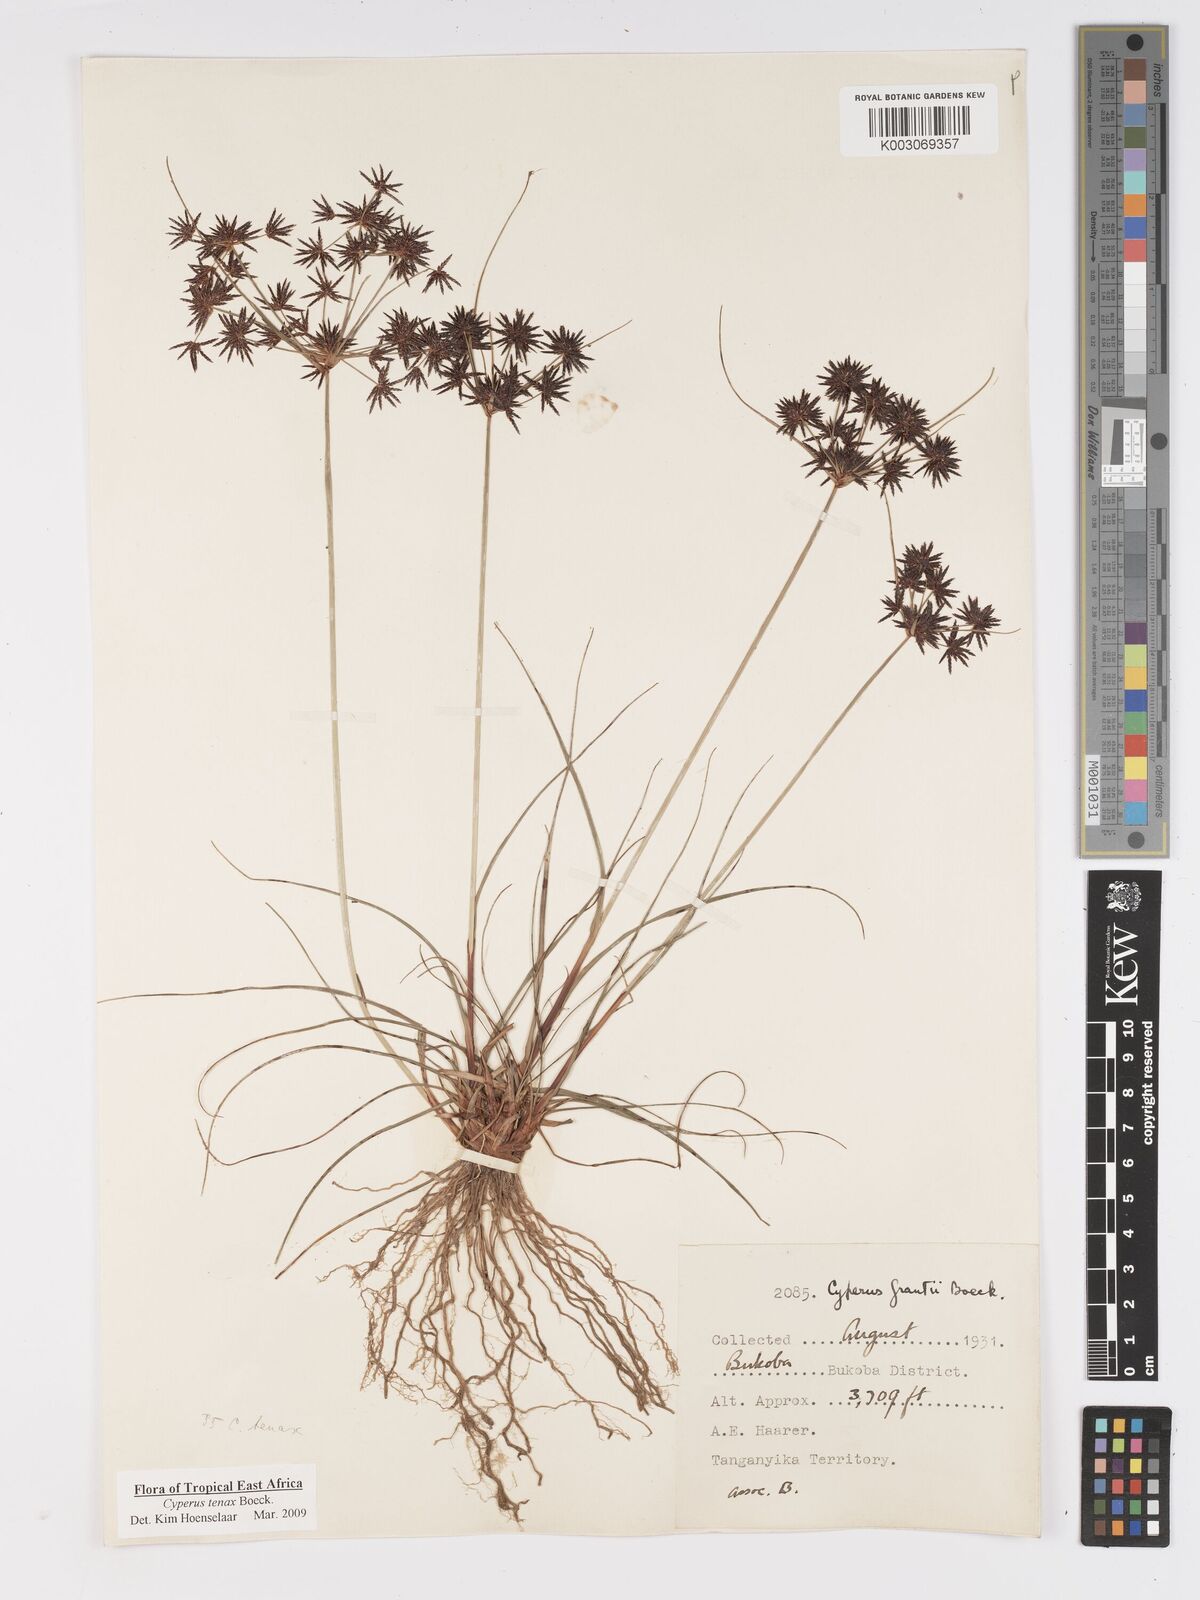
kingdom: Plantae
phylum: Tracheophyta
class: Liliopsida
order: Poales
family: Cyperaceae
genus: Cyperus
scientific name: Cyperus tenax
